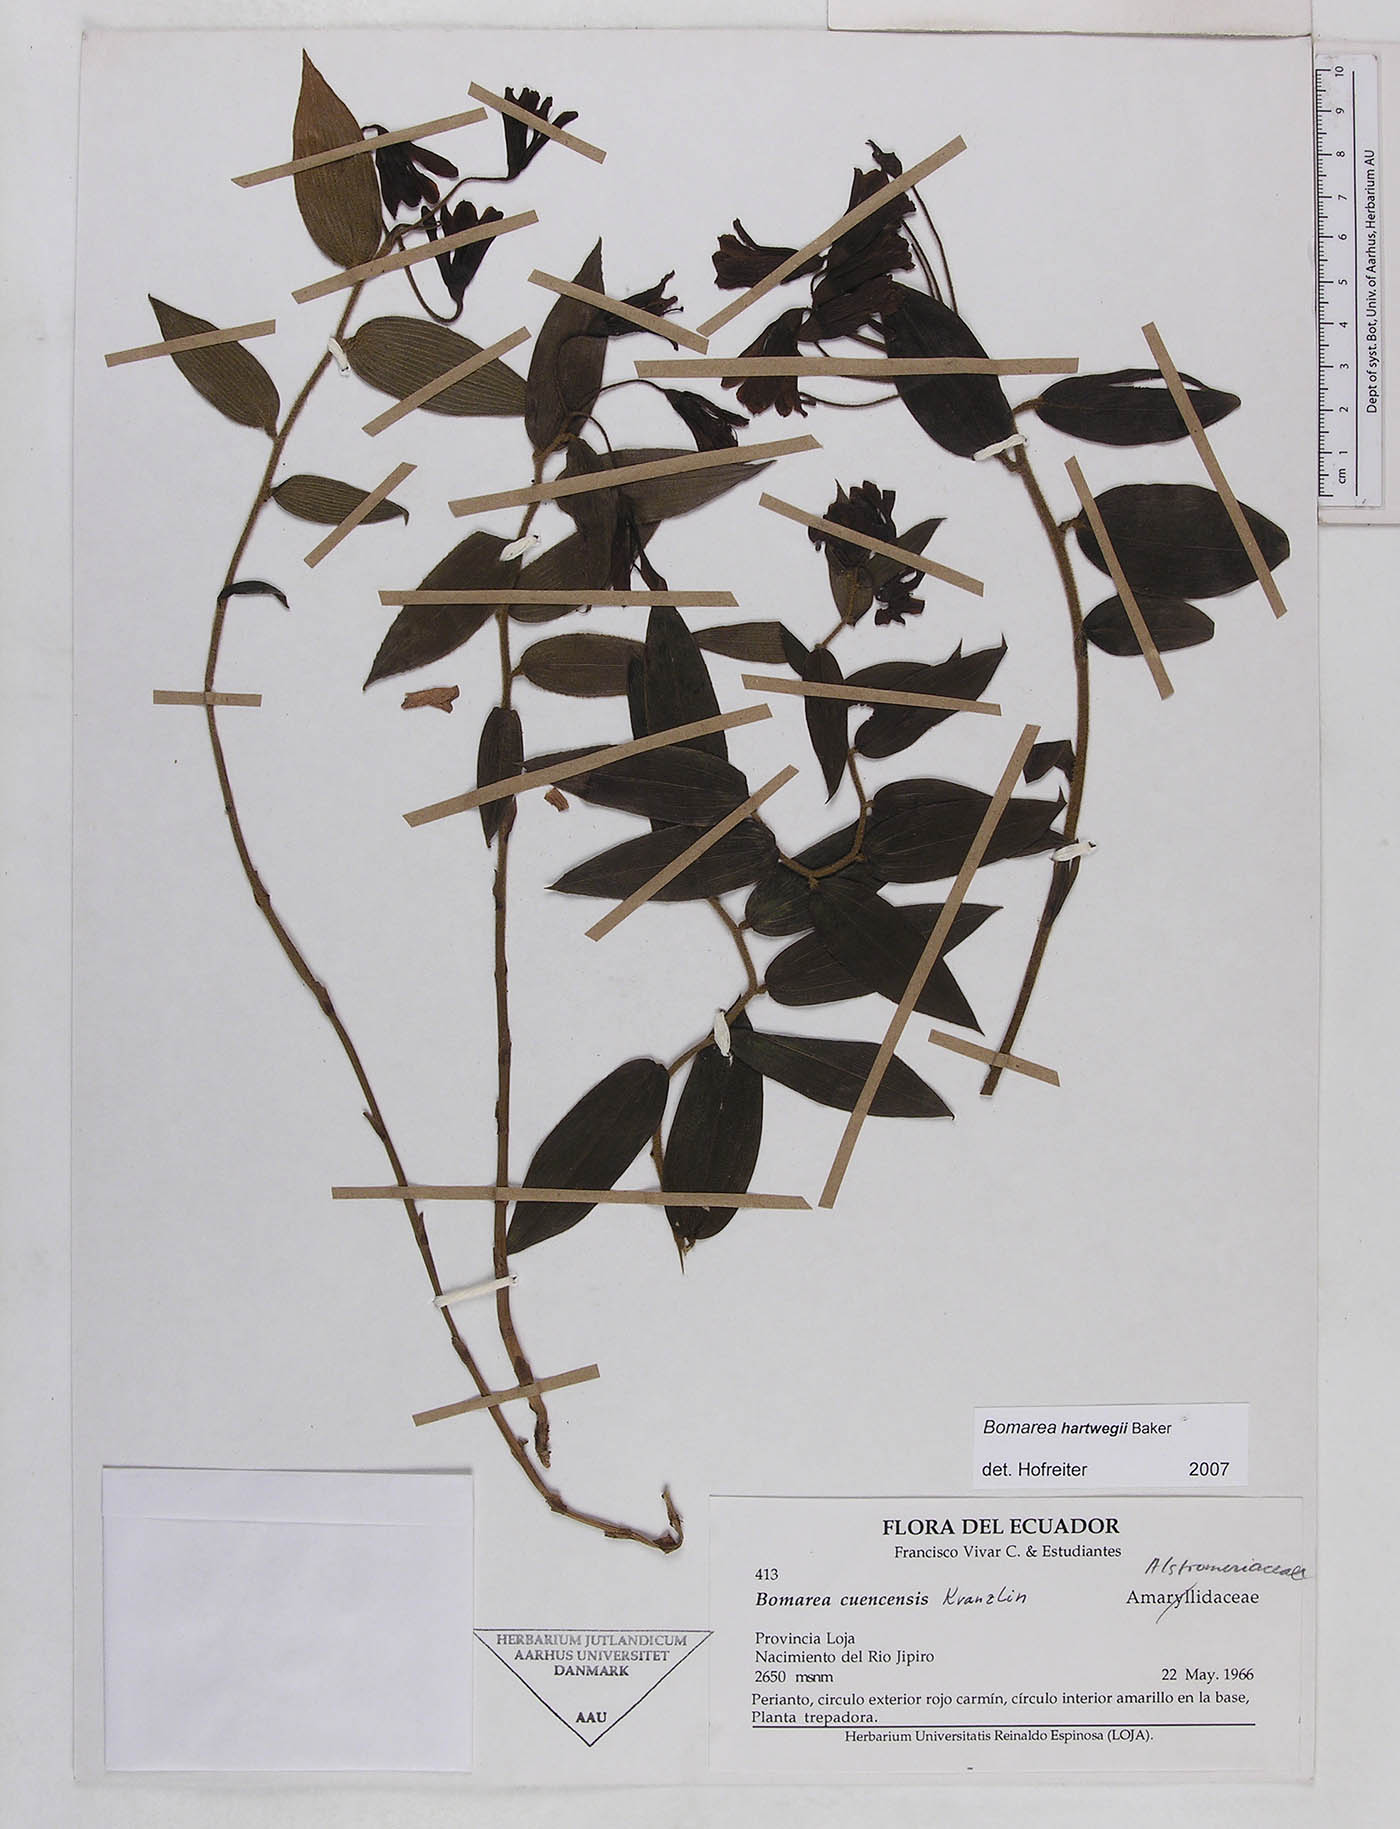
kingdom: Plantae
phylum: Tracheophyta
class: Liliopsida
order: Liliales
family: Alstroemeriaceae
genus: Bomarea
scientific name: Bomarea hartwegii
